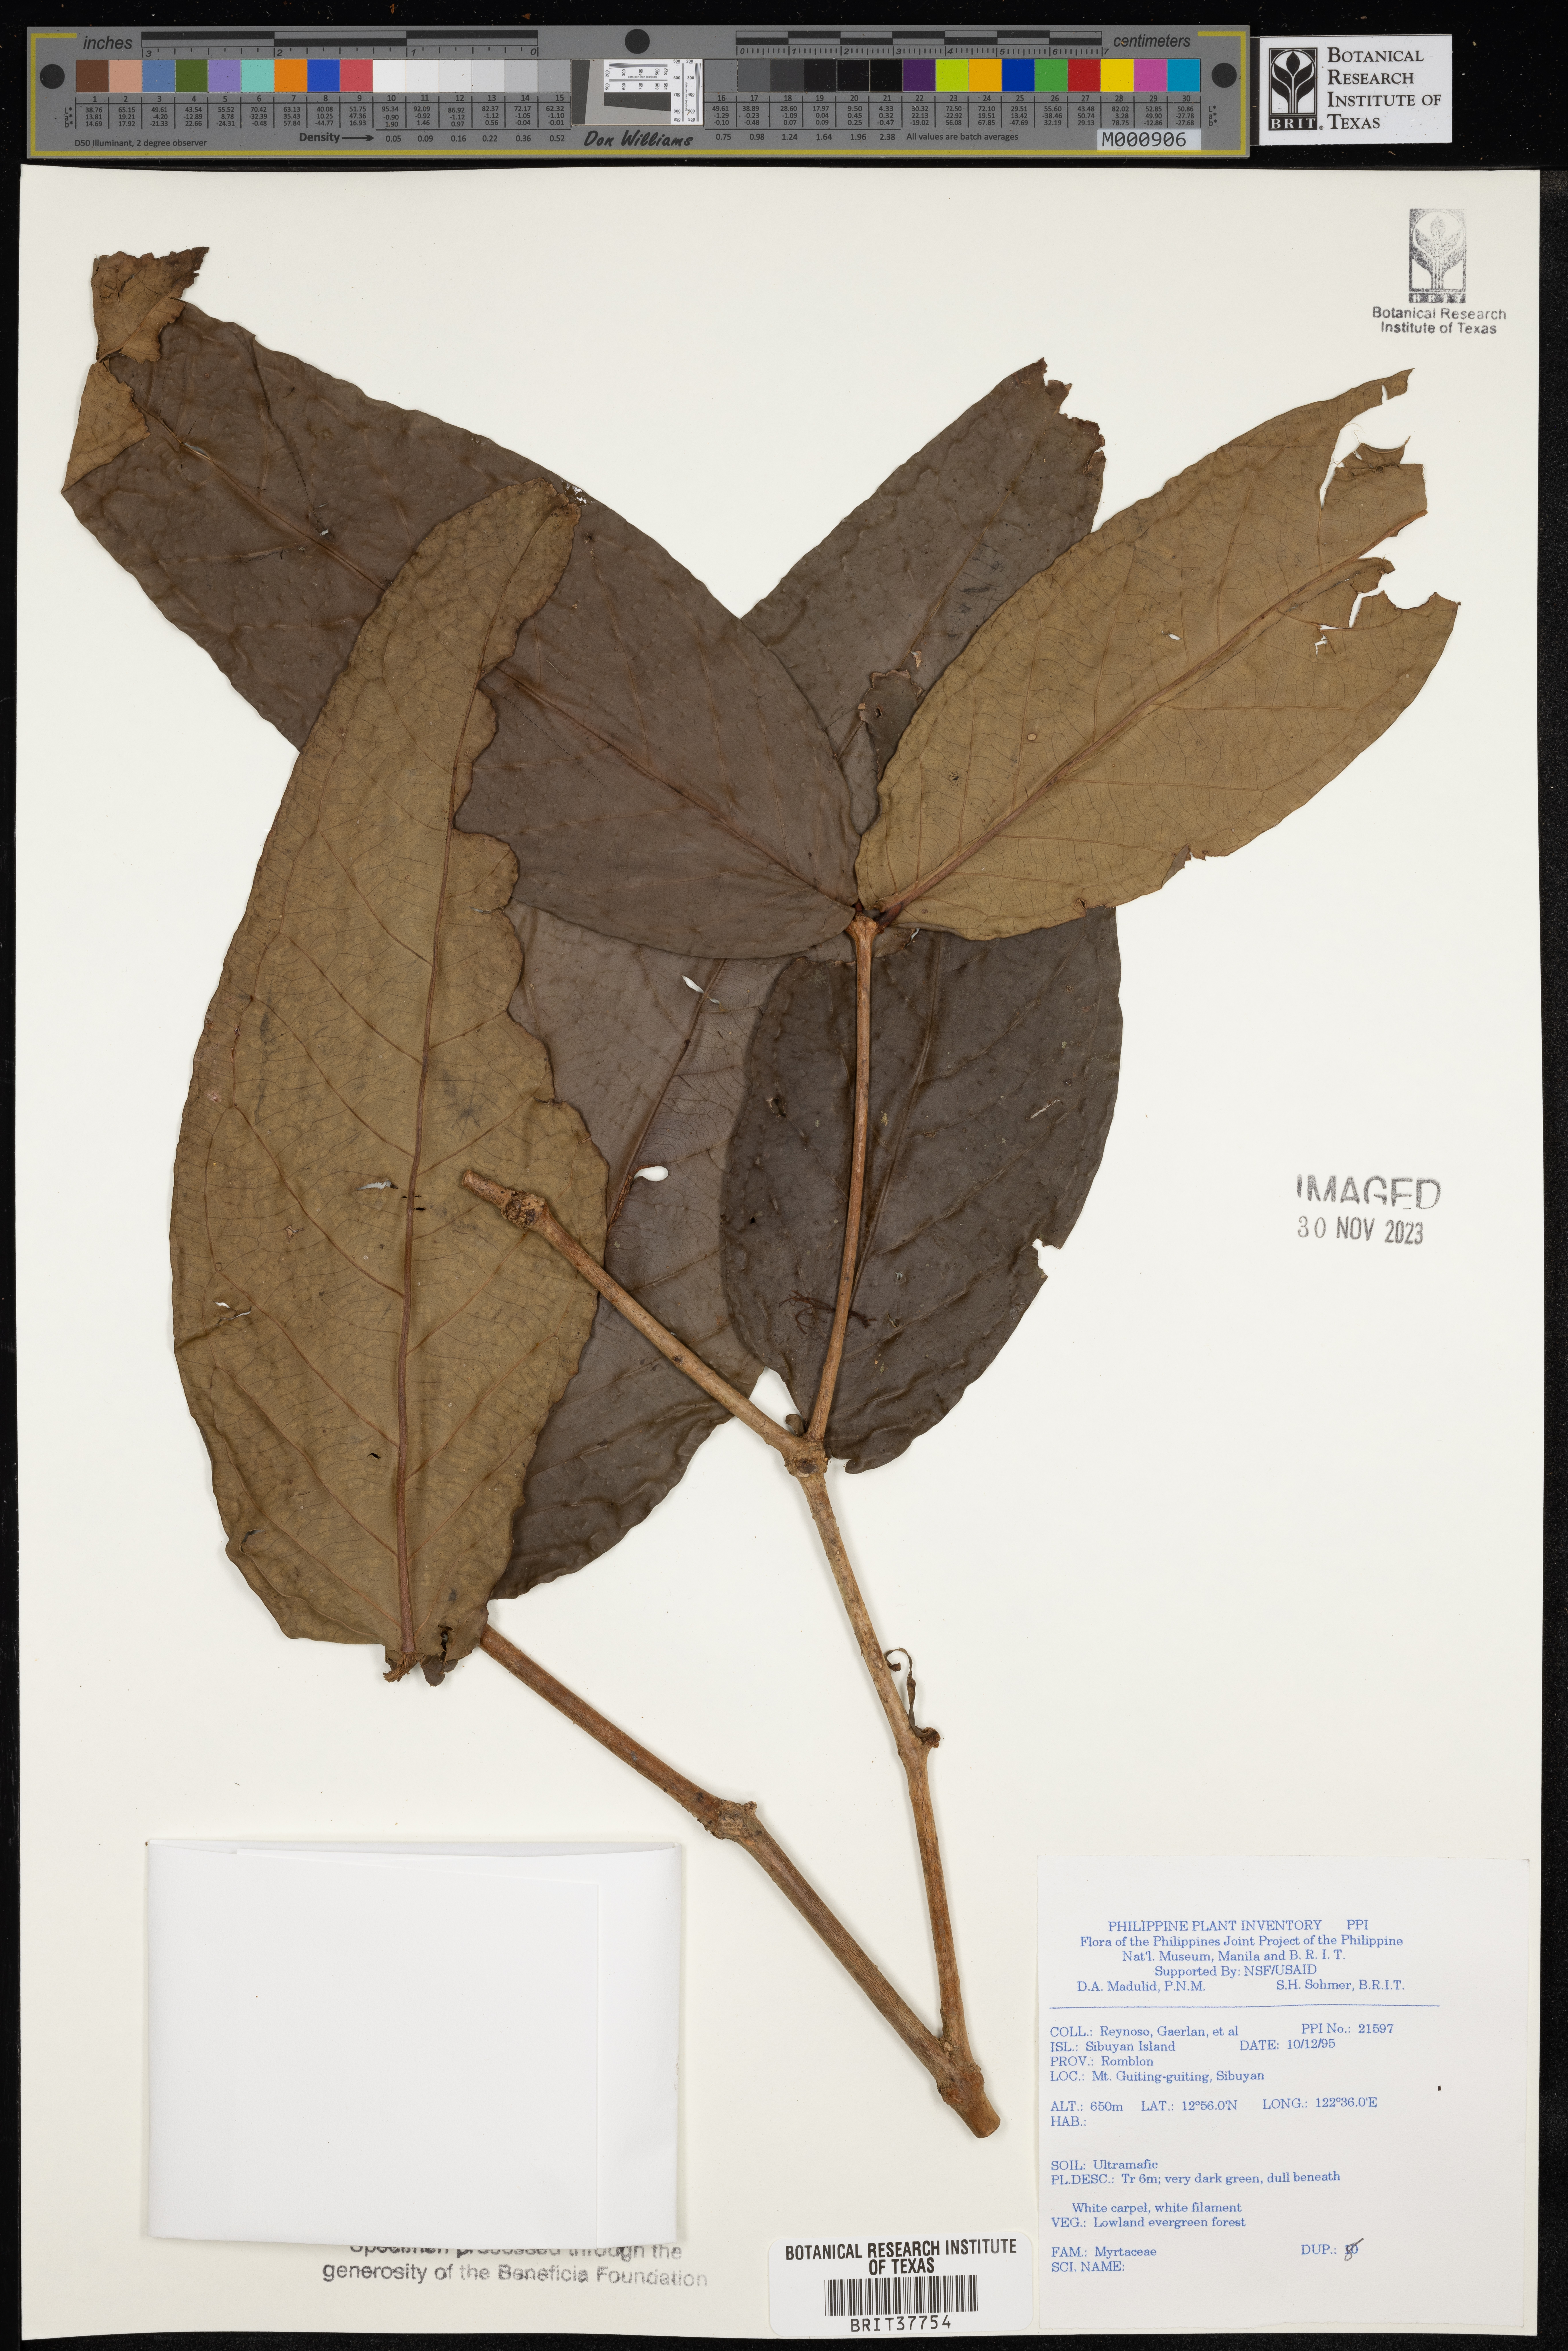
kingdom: Plantae
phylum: Tracheophyta
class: Magnoliopsida
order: Myrtales
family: Myrtaceae
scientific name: Myrtaceae
